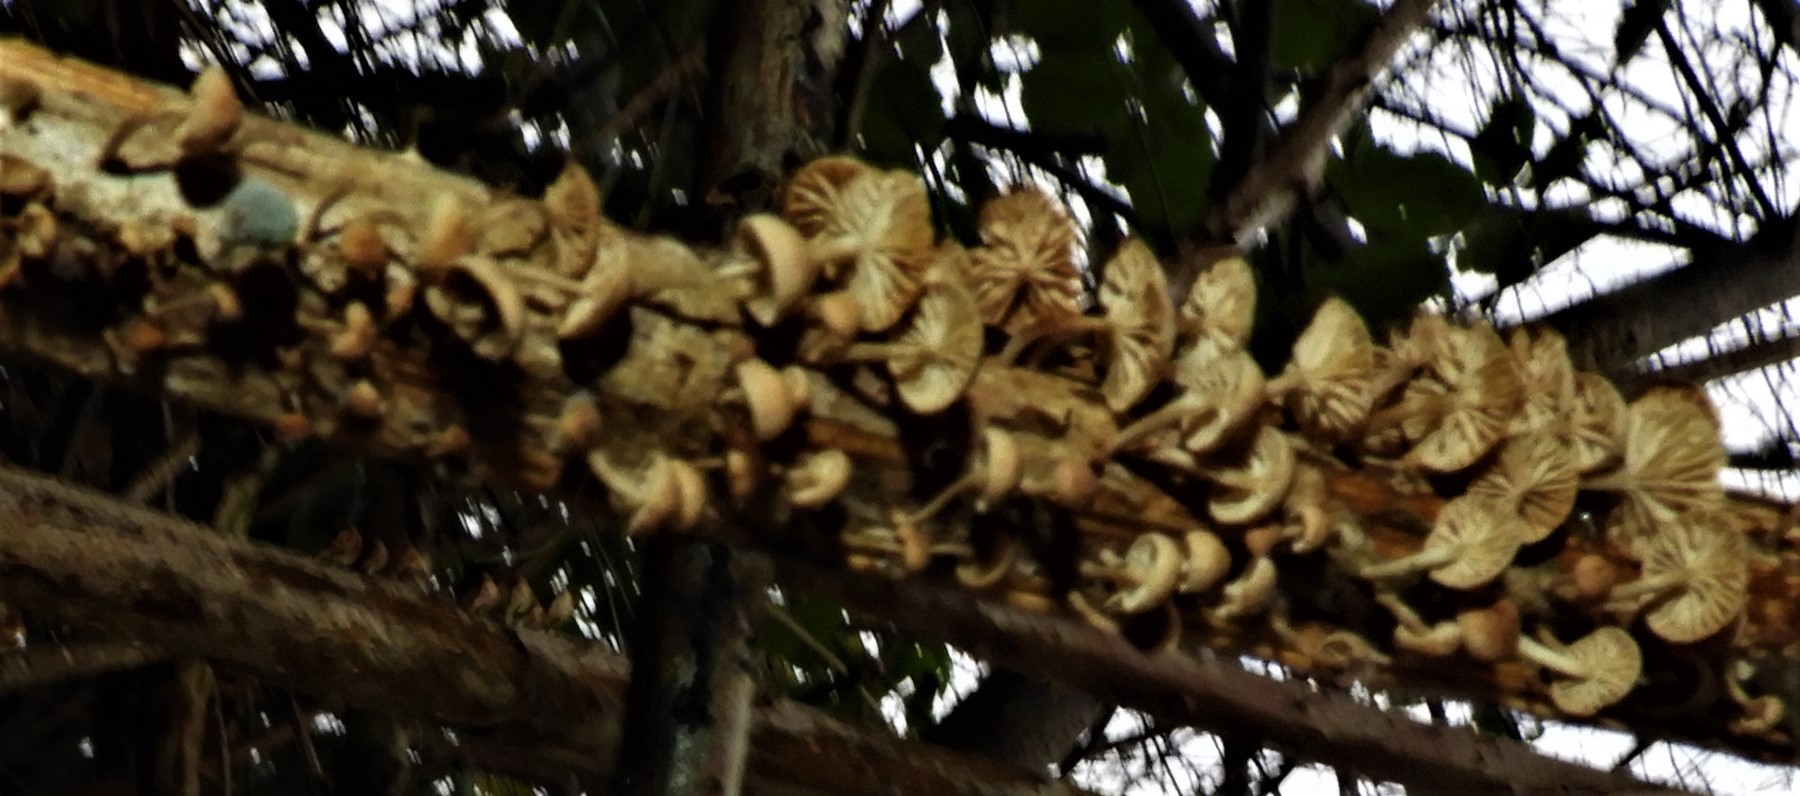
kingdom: Fungi
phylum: Basidiomycota
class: Agaricomycetes
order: Agaricales
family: Omphalotaceae
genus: Collybiopsis
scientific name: Collybiopsis ramealis
